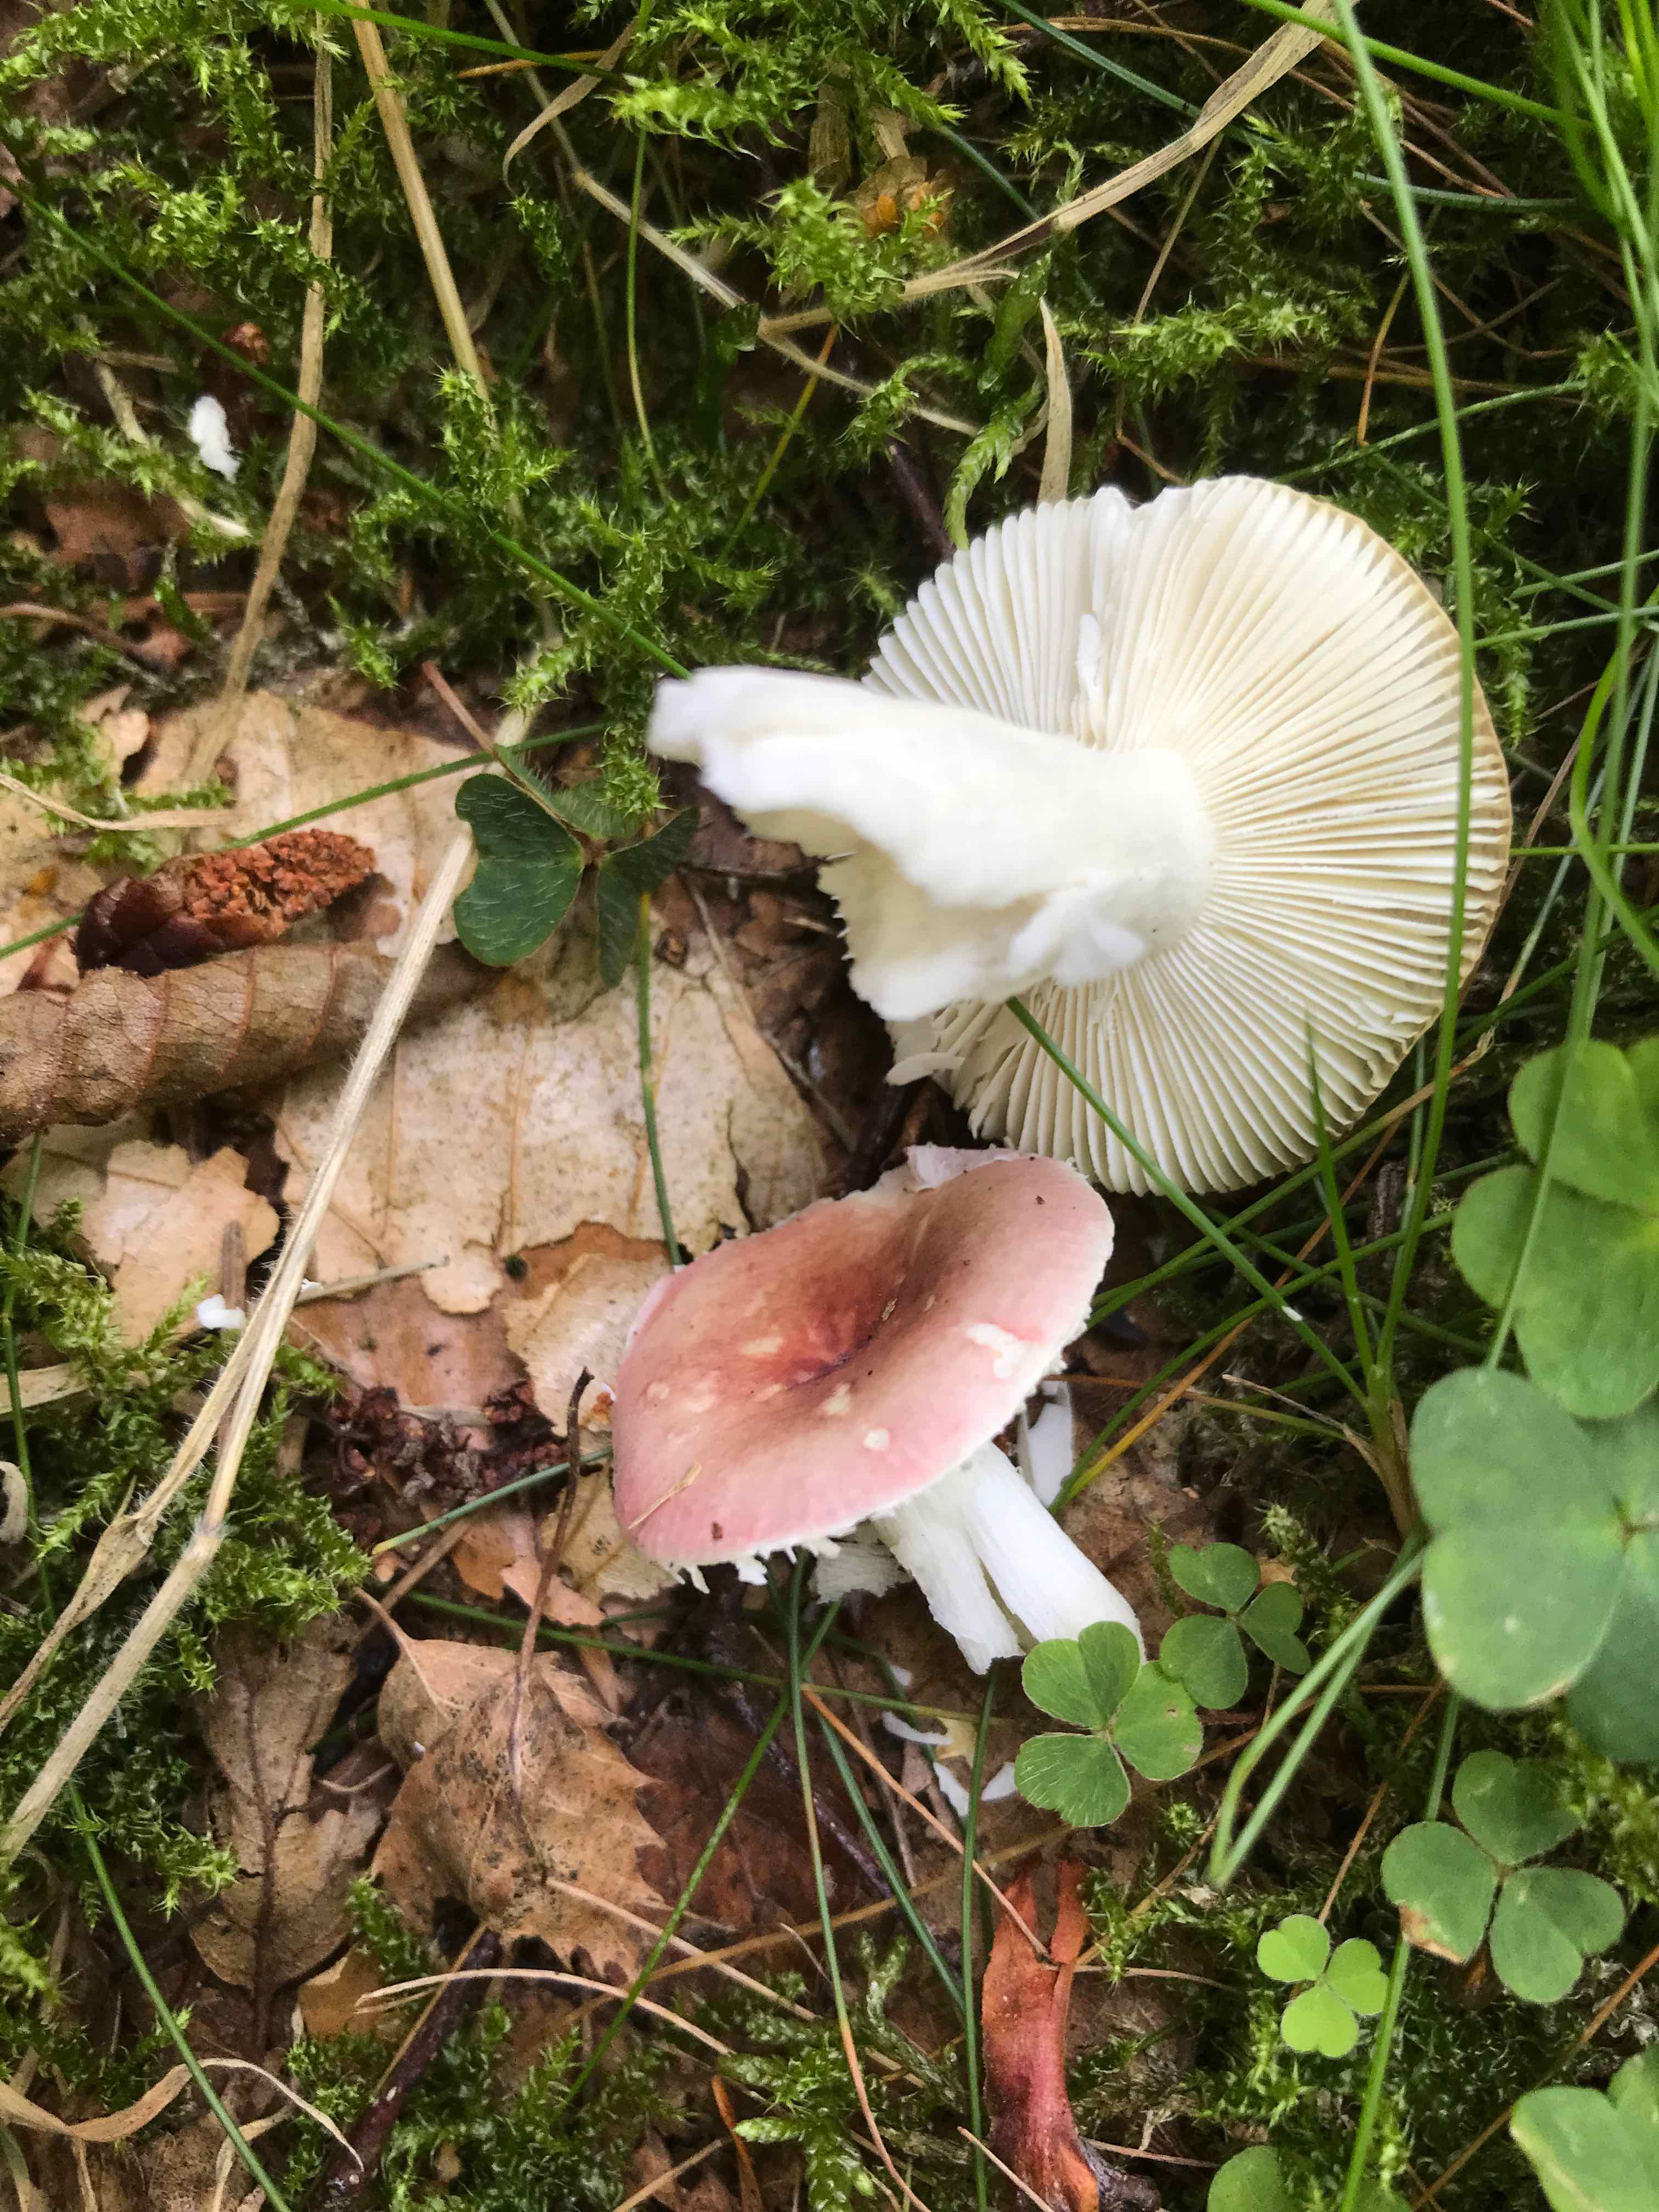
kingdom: Fungi
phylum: Basidiomycota
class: Agaricomycetes
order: Russulales
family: Russulaceae
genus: Russula
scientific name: Russula
